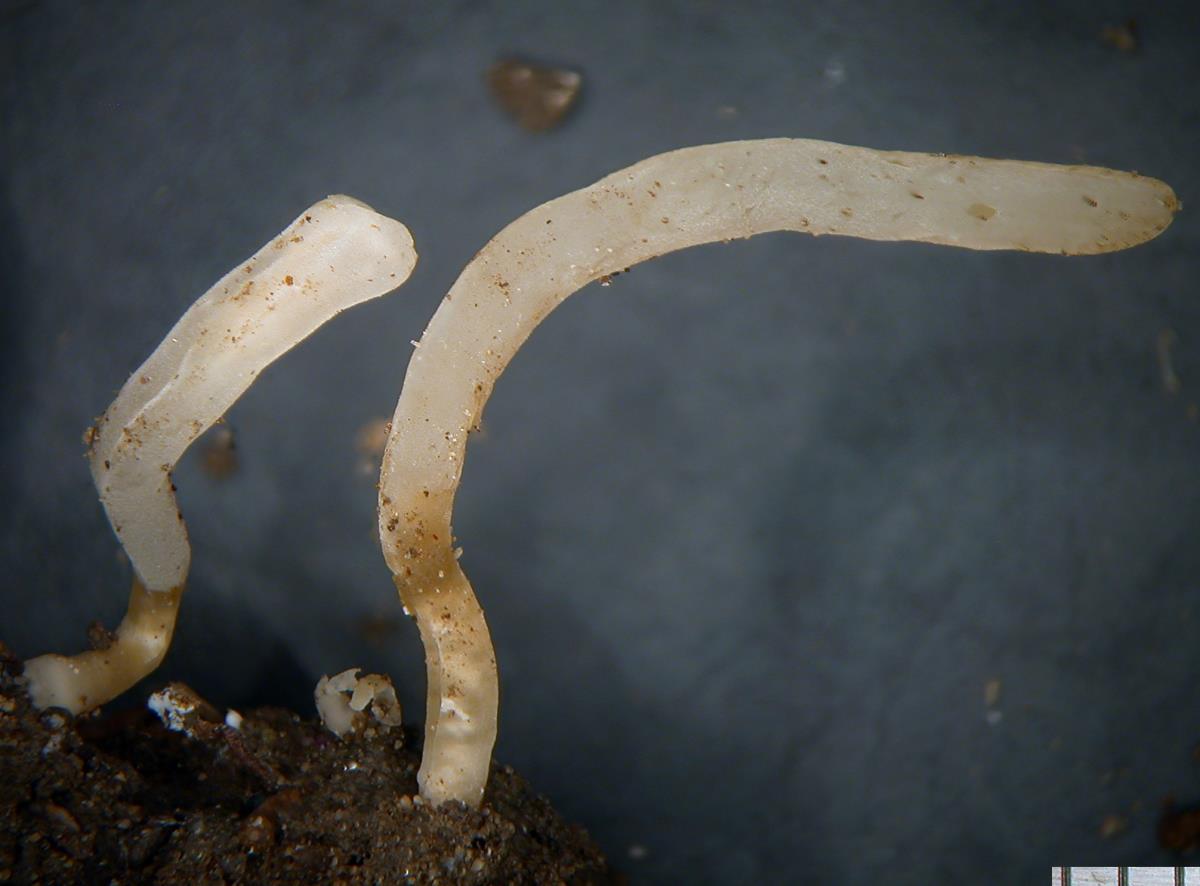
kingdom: Fungi
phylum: Basidiomycota
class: Agaricomycetes
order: Agaricales
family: Clavariaceae
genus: Clavaria
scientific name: Clavaria gibbsiae
